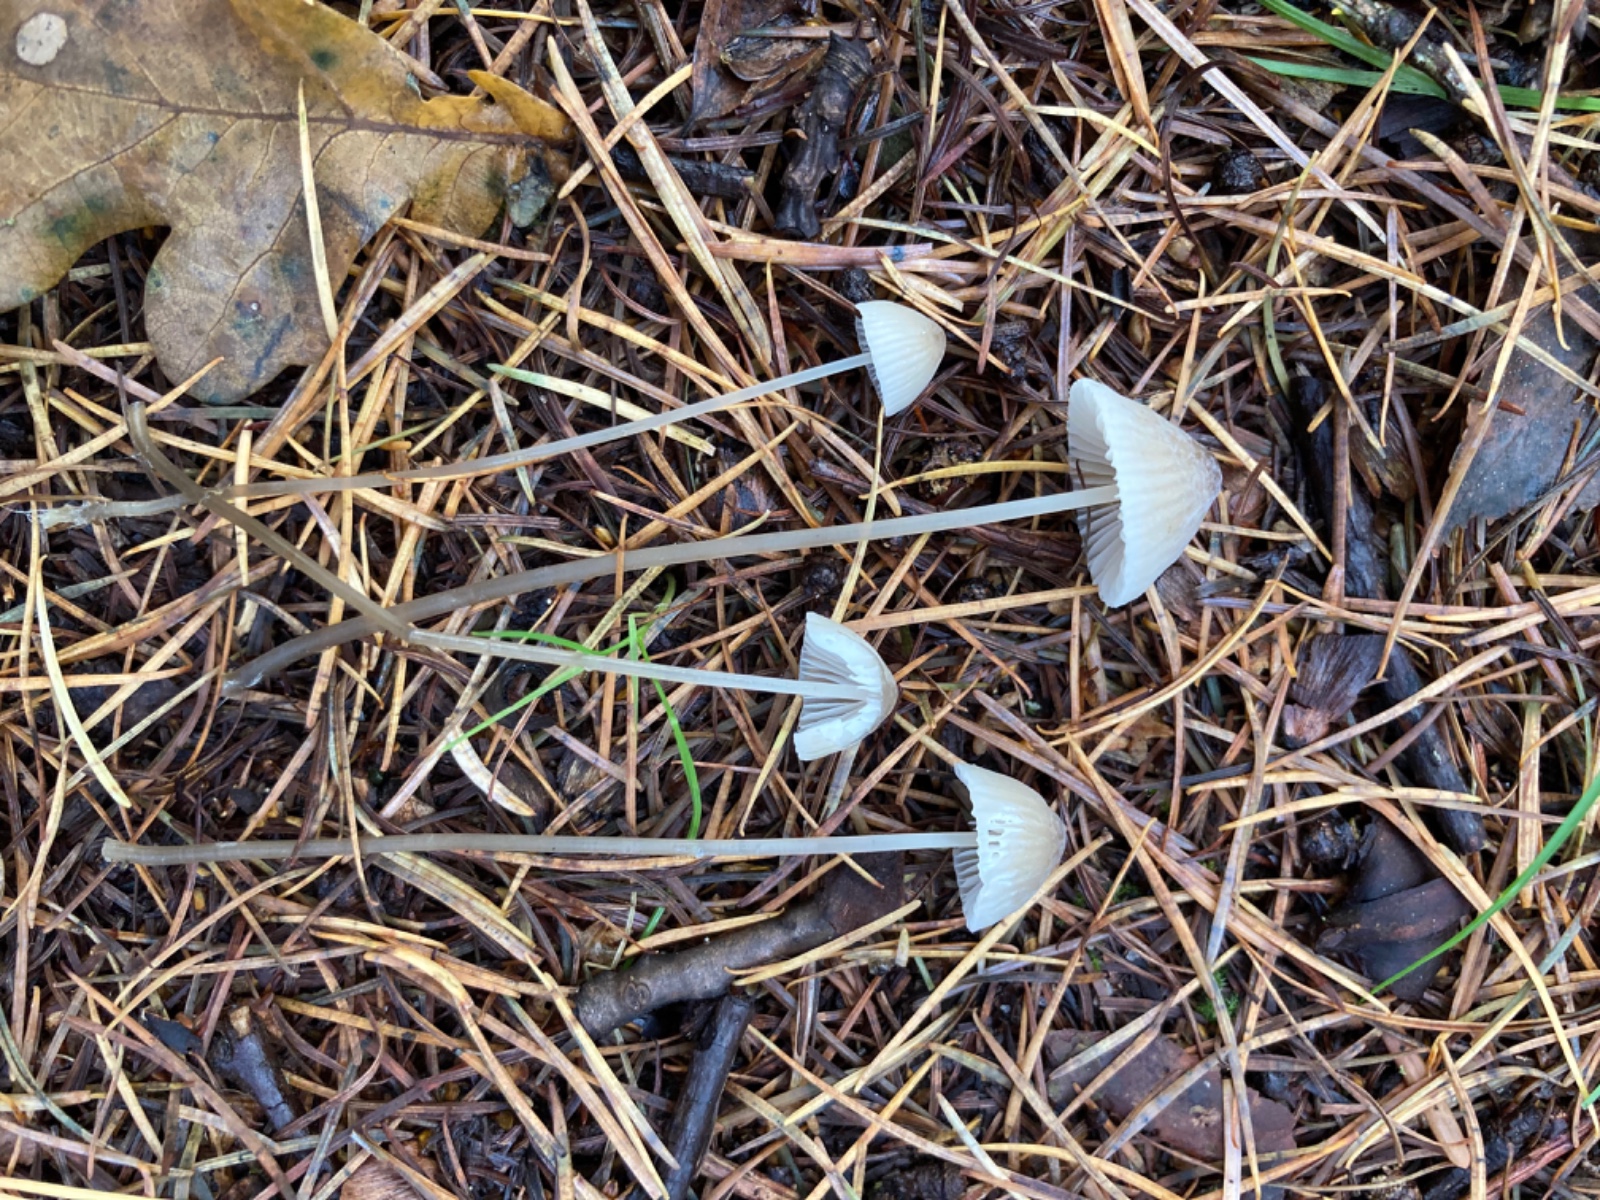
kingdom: Fungi
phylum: Basidiomycota
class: Agaricomycetes
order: Agaricales
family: Mycenaceae
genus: Mycena
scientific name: Mycena galopus
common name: hvidmælket huesvamp
